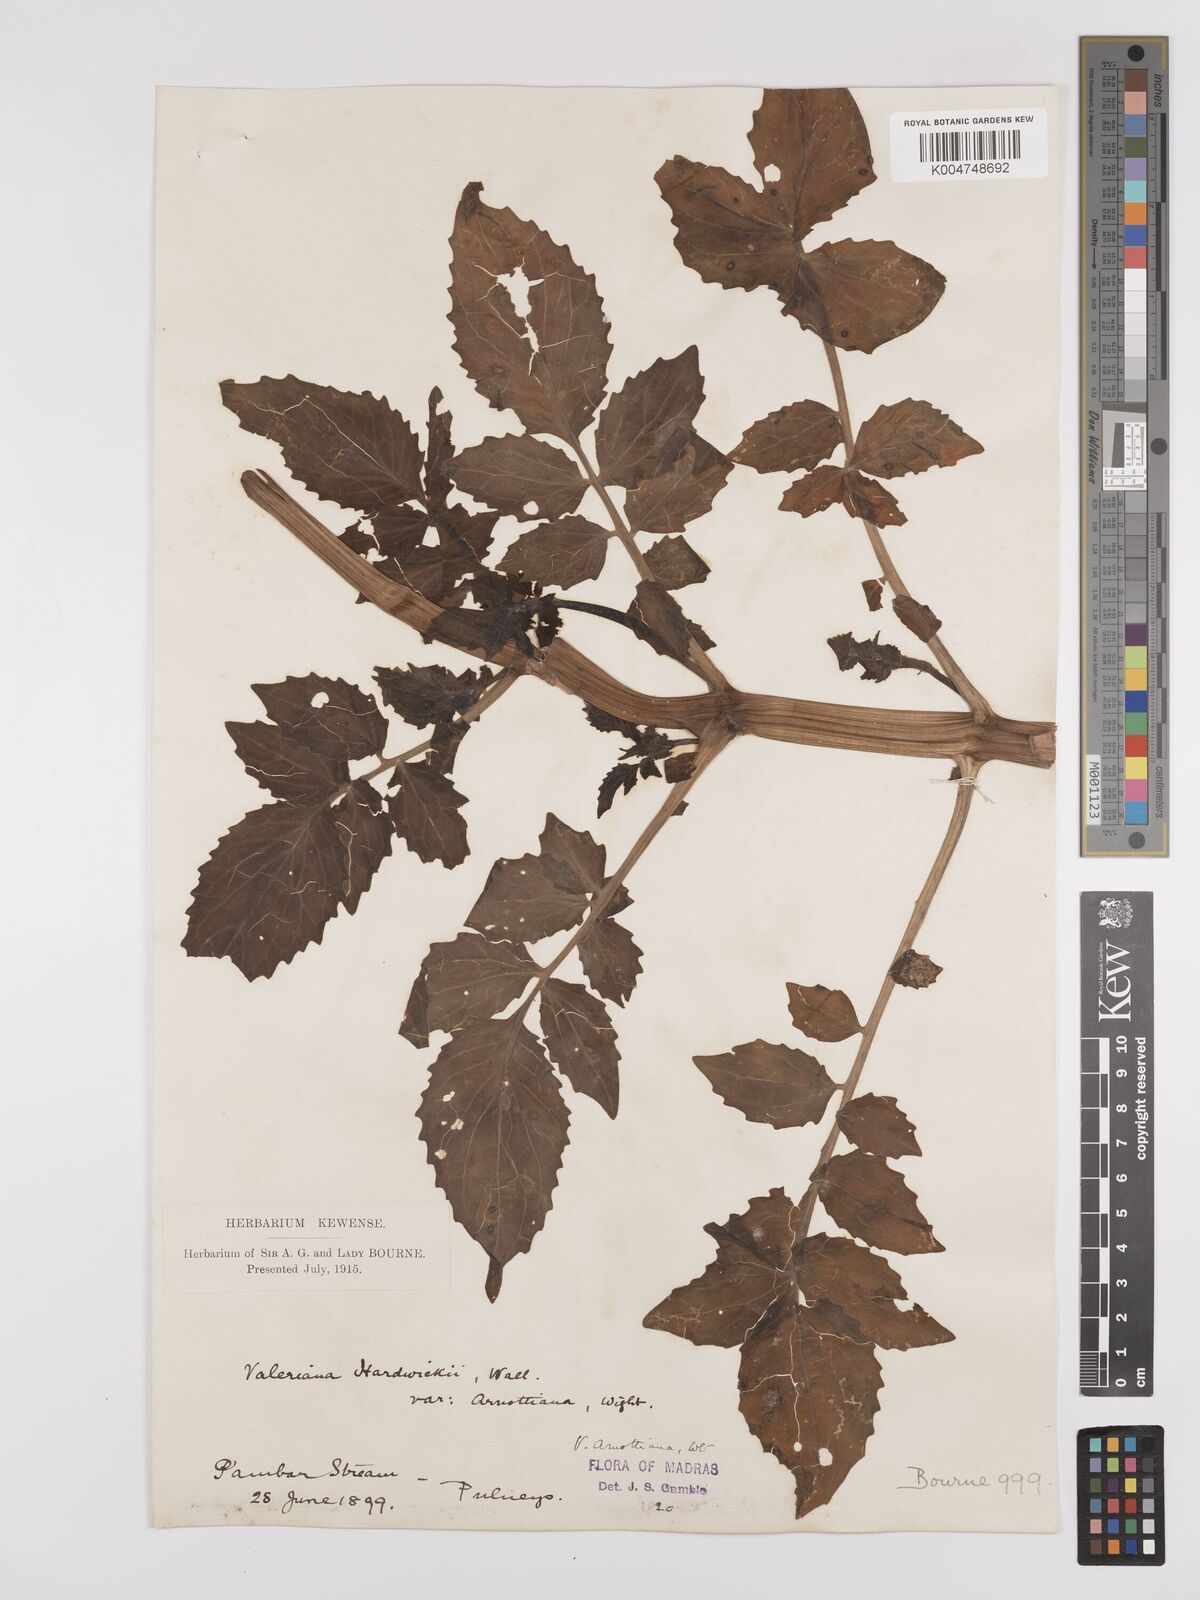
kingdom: Plantae
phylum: Tracheophyta
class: Magnoliopsida
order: Dipsacales
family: Caprifoliaceae
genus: Valeriana
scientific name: Valeriana
